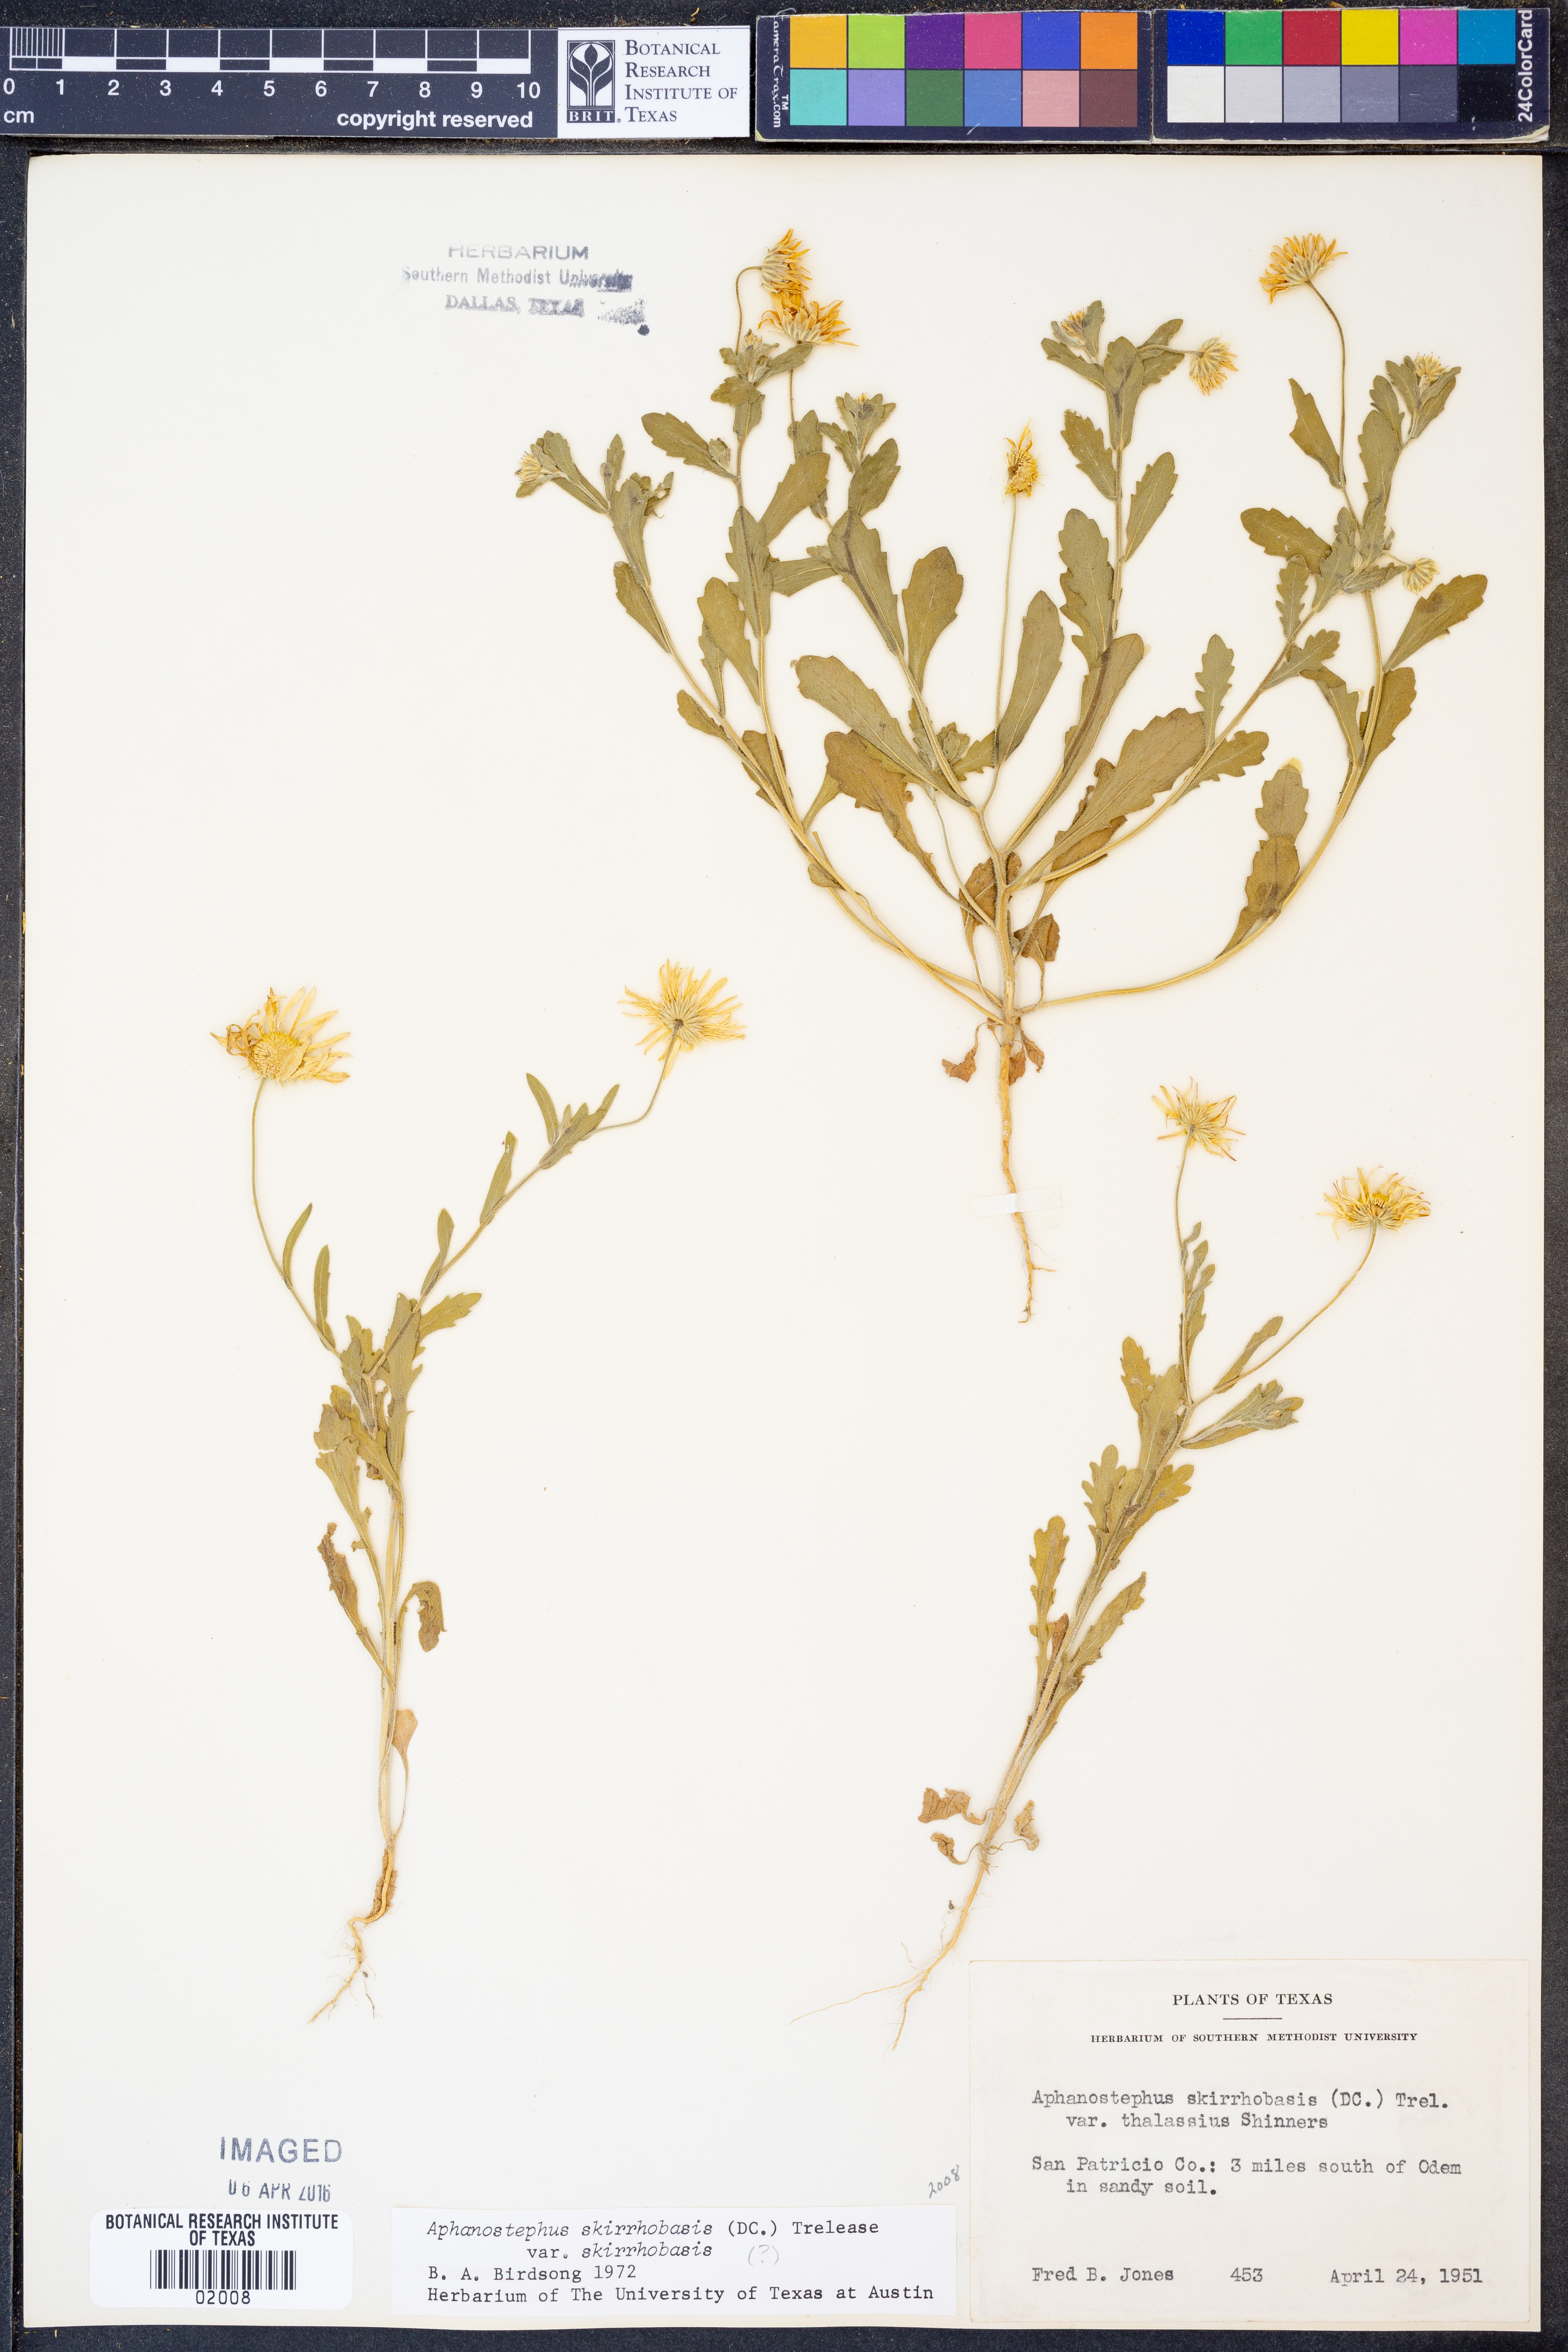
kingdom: Plantae
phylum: Tracheophyta
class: Magnoliopsida
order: Asterales
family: Asteraceae
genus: Aphanostephus
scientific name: Aphanostephus skirrhobasis
